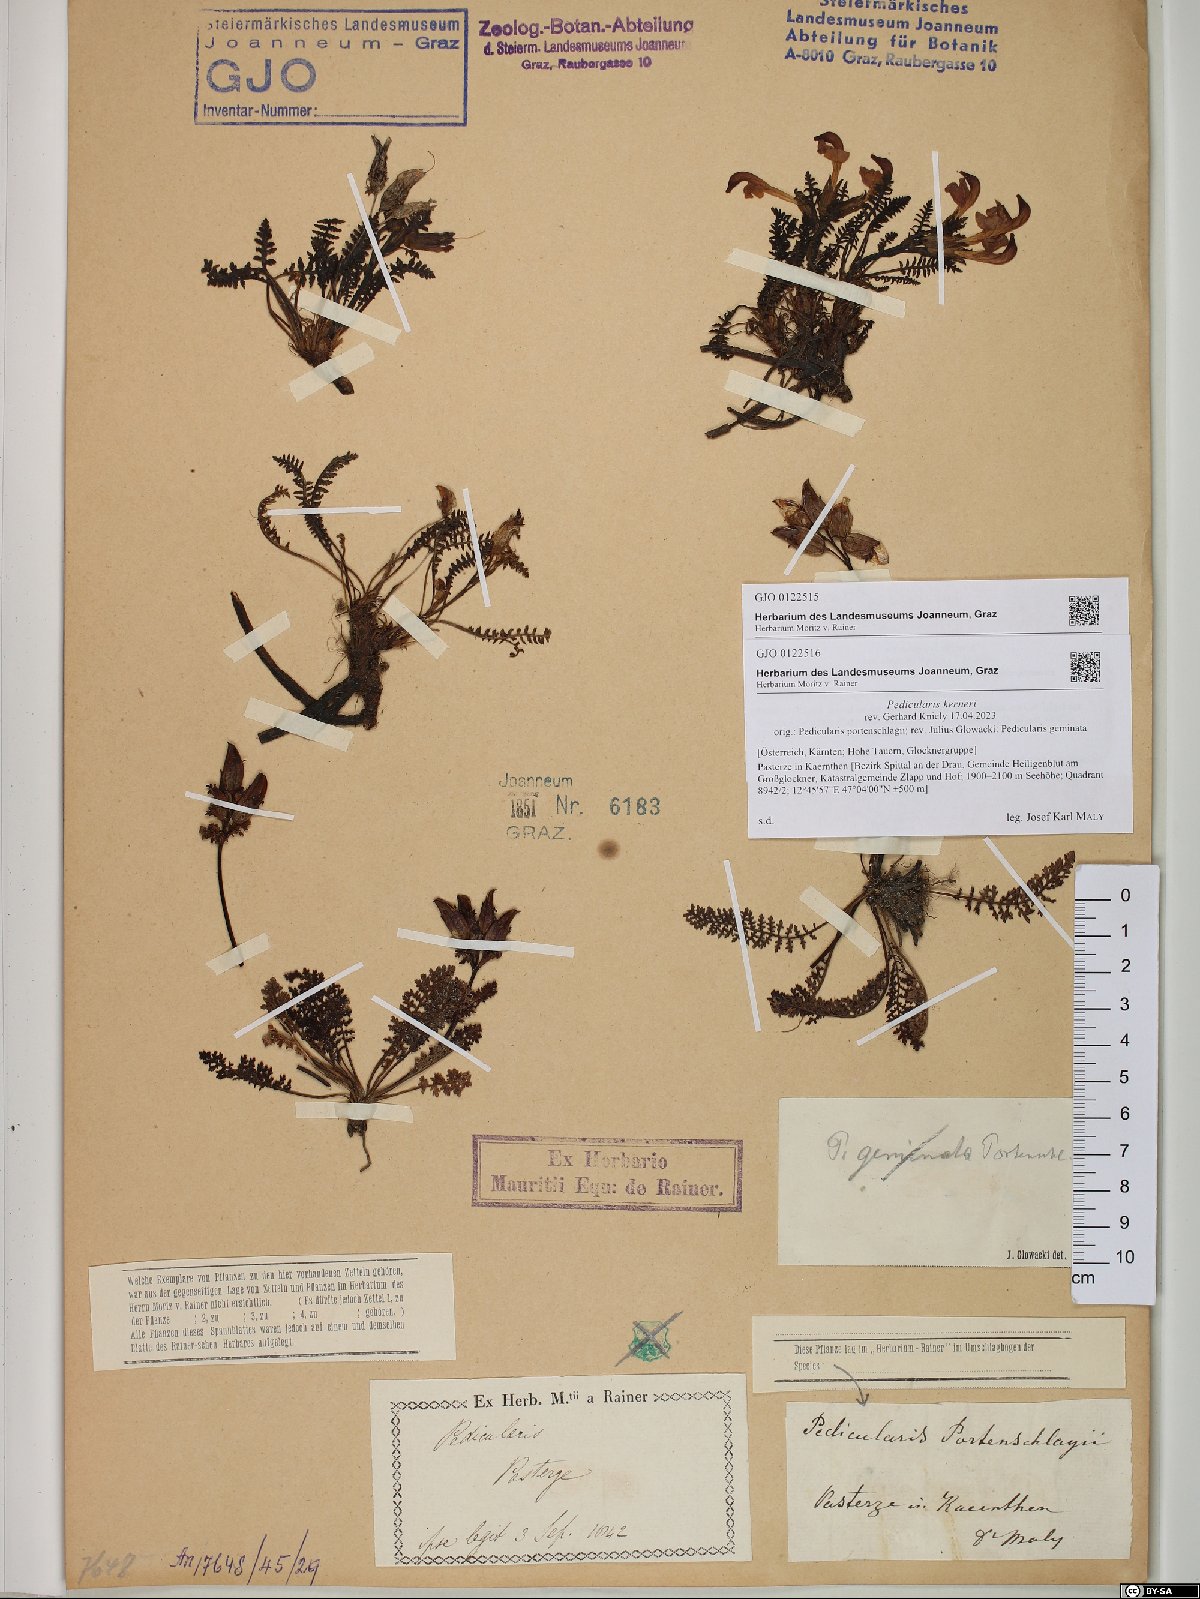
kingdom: Plantae
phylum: Tracheophyta
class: Magnoliopsida
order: Lamiales
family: Orobanchaceae
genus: Pedicularis
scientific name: Pedicularis kerneri
